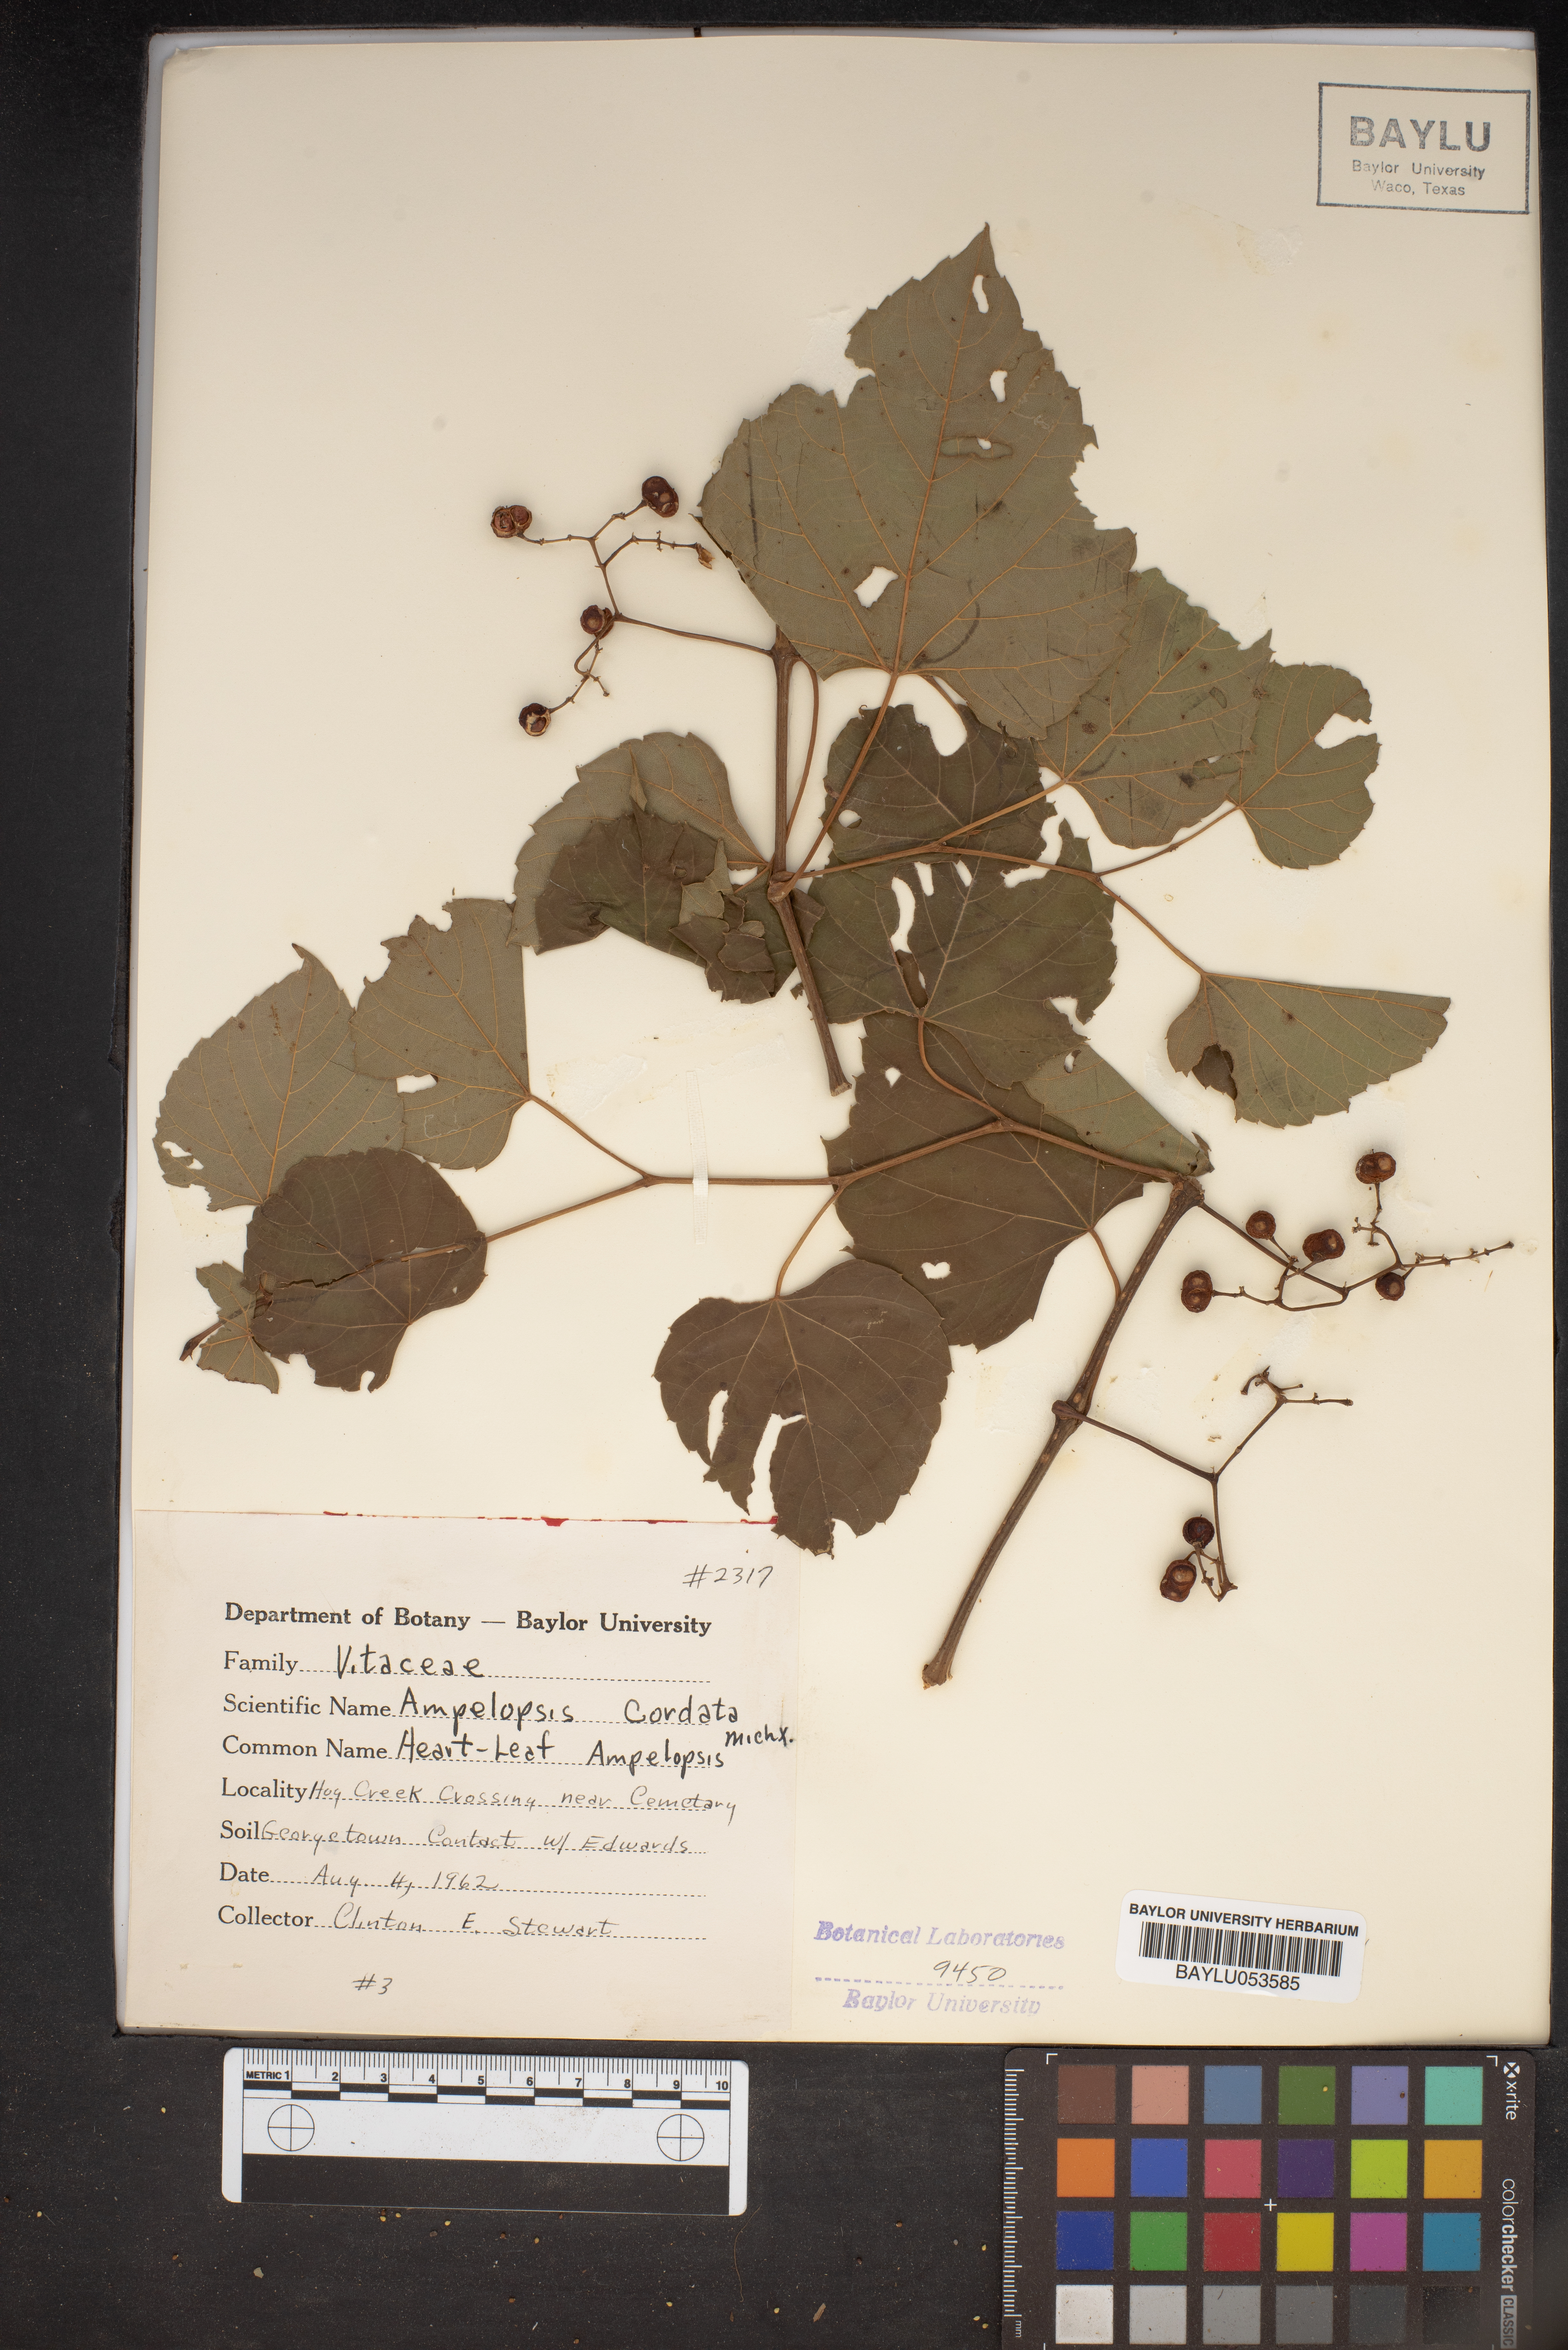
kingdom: Plantae
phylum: Tracheophyta
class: Magnoliopsida
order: Vitales
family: Vitaceae
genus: Ampelopsis
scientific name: Ampelopsis cordata
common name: Heart-leaf ampelopsis
